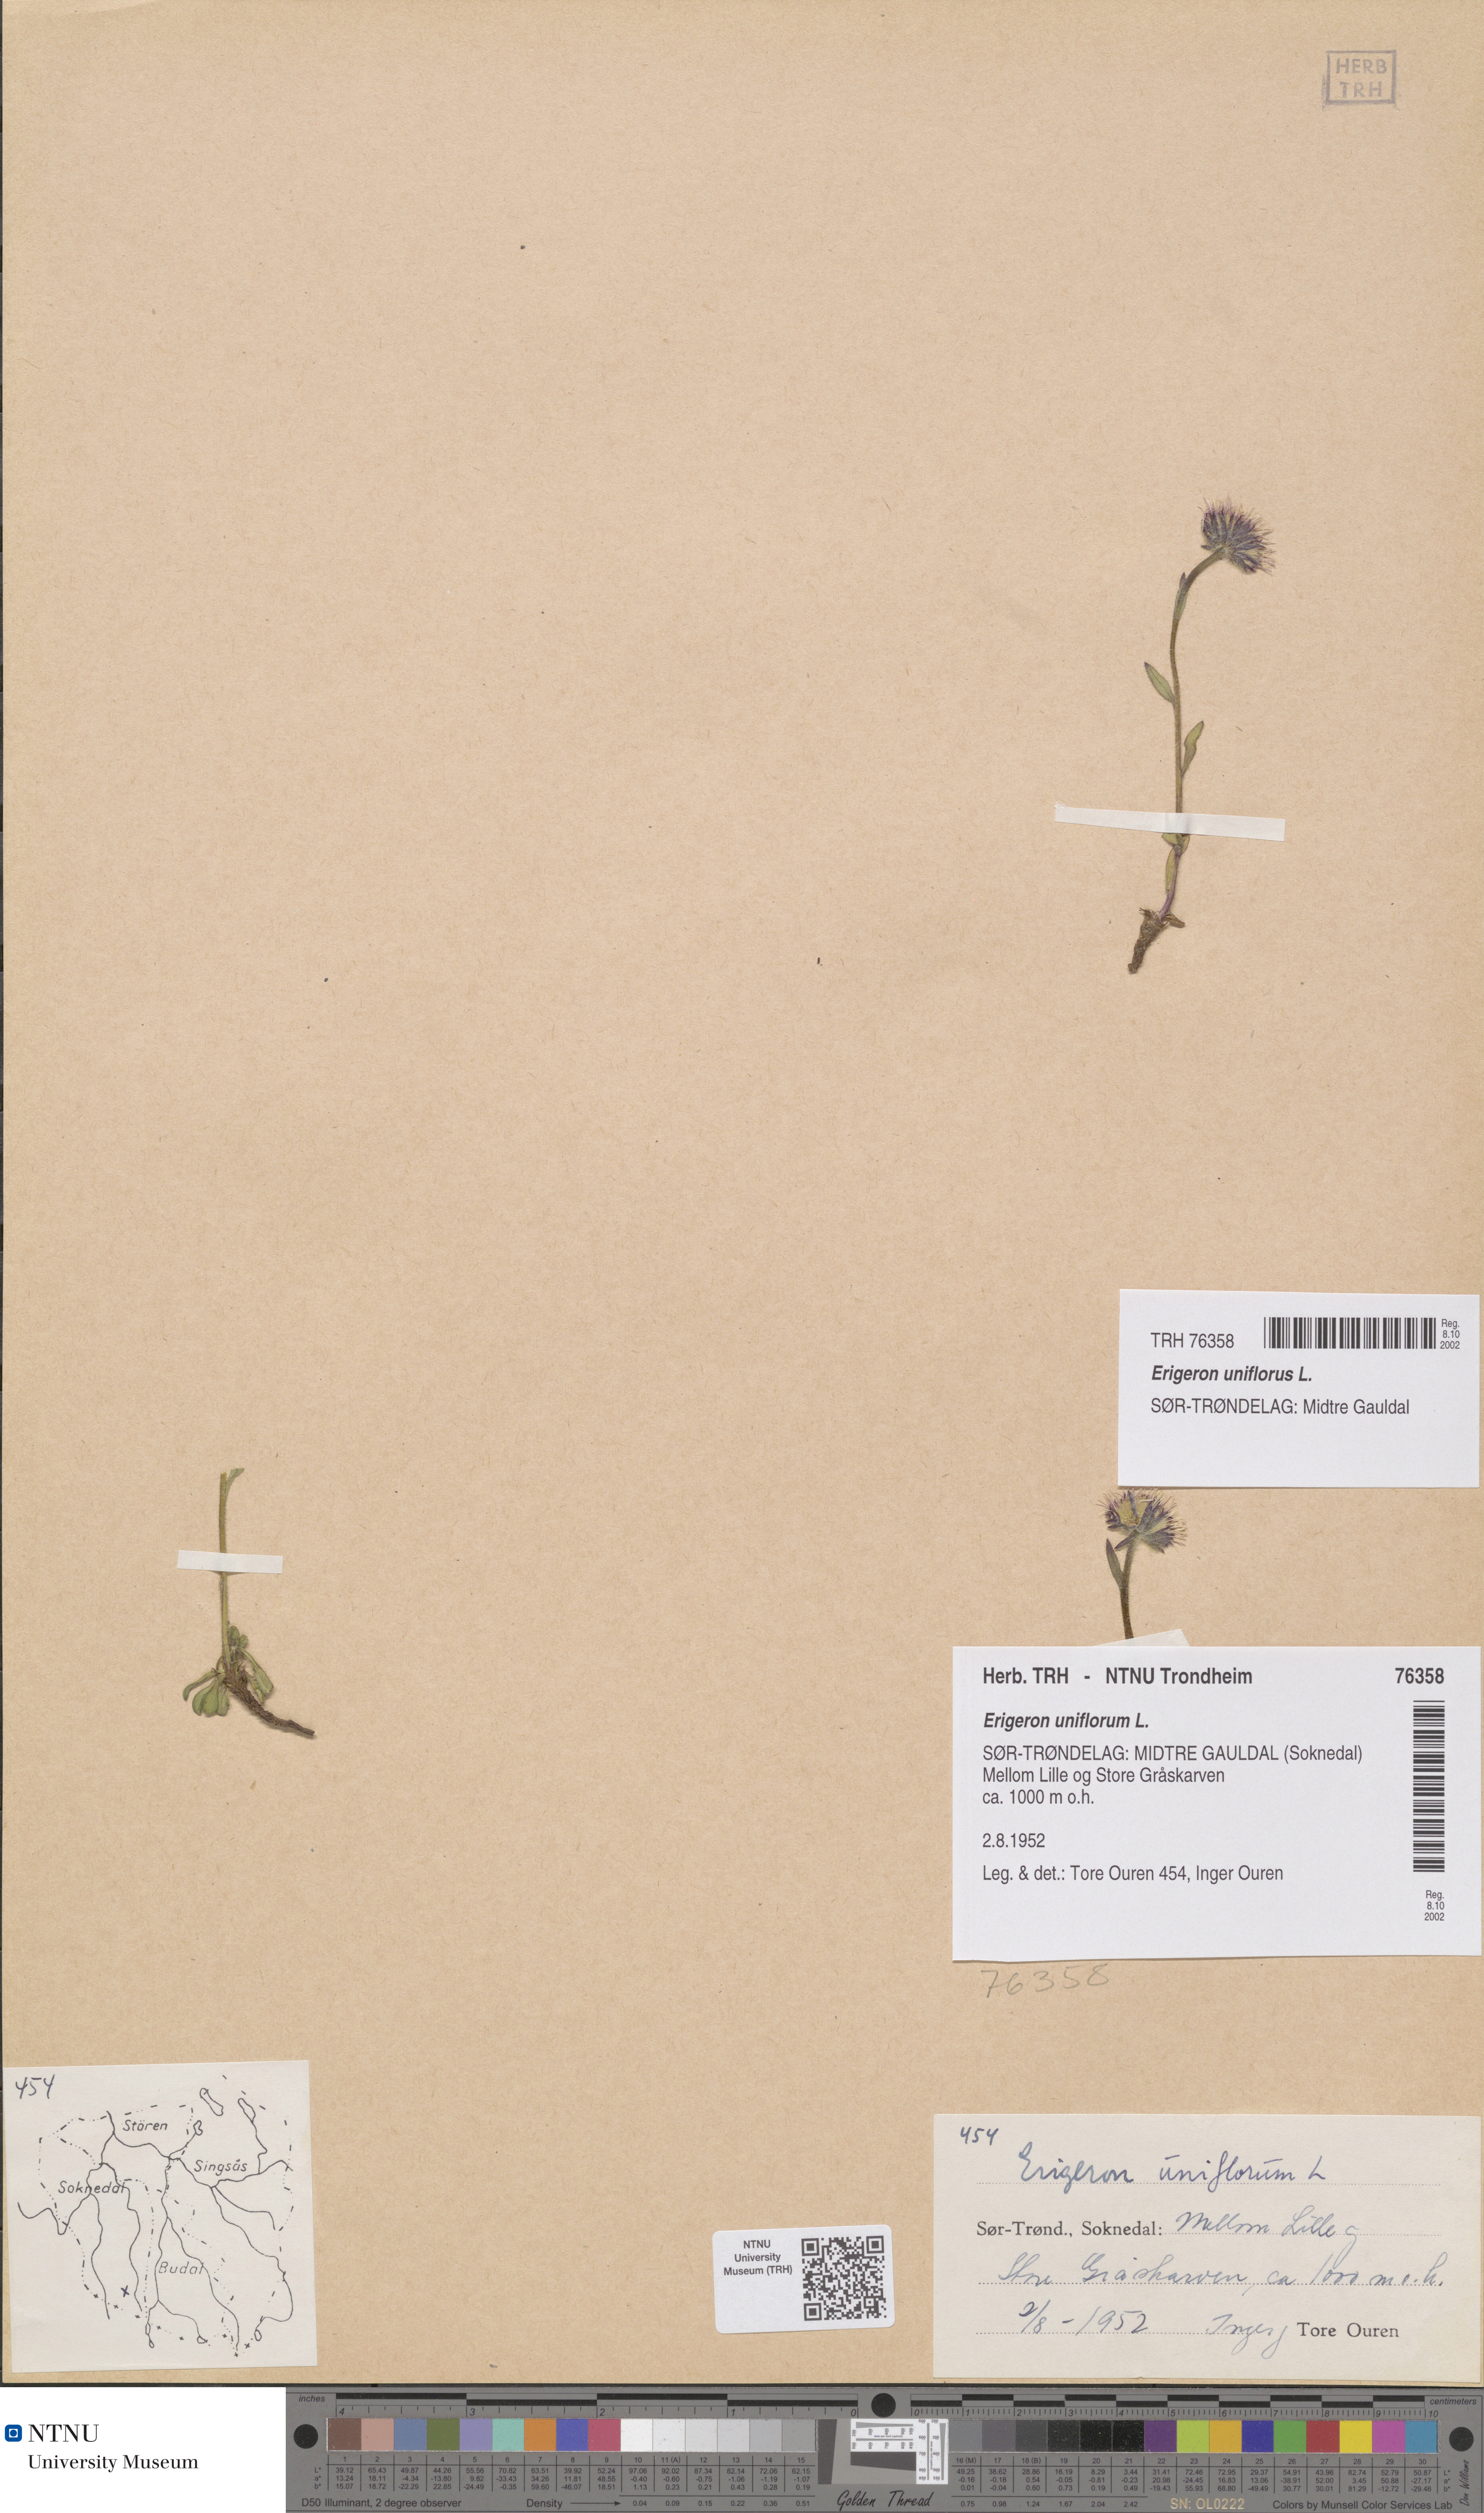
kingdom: Plantae
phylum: Tracheophyta
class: Magnoliopsida
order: Asterales
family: Asteraceae
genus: Erigeron
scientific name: Erigeron uniflorus
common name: Northern daisy
